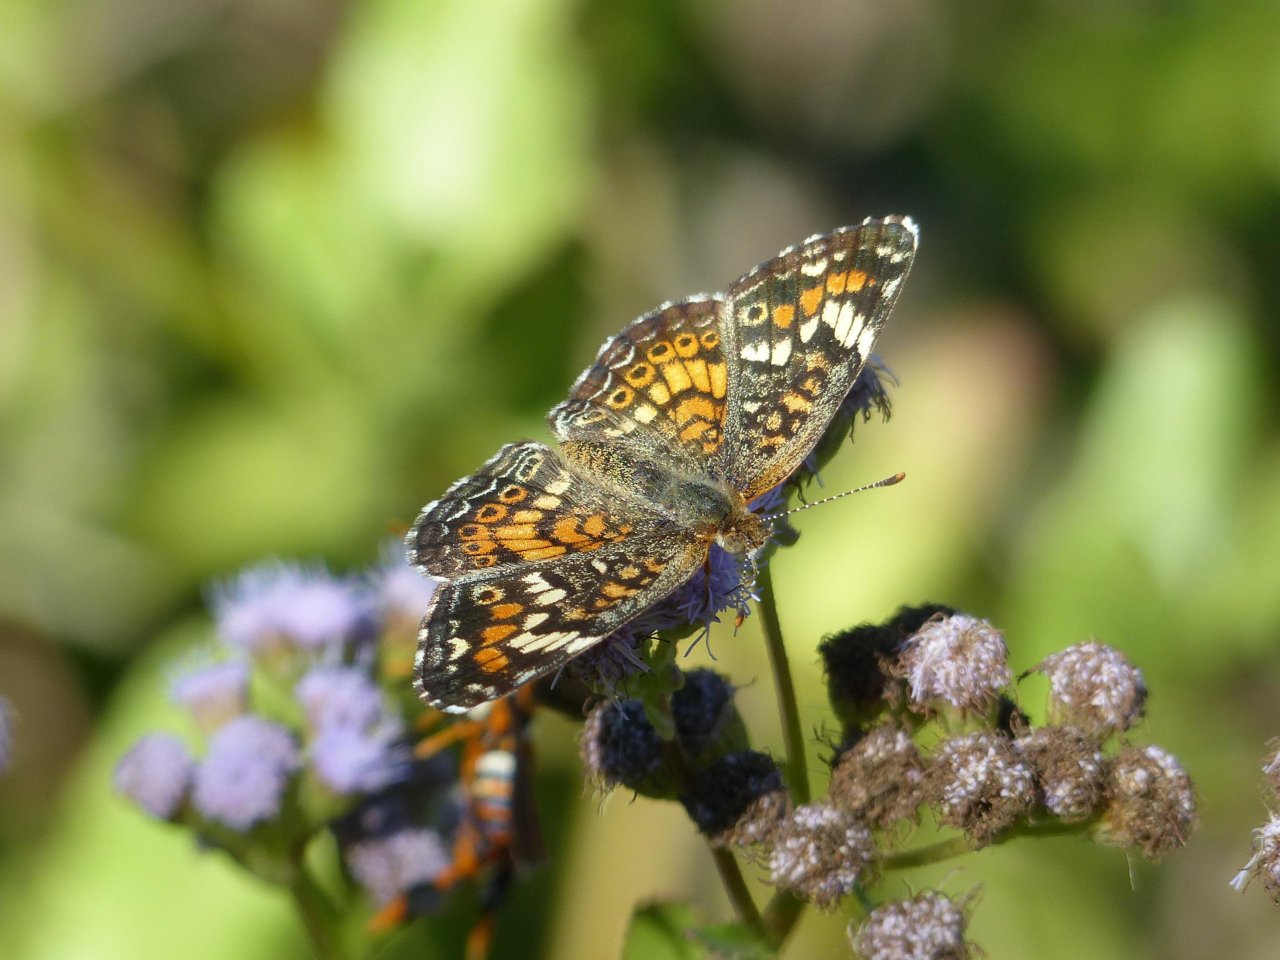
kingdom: Animalia
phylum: Arthropoda
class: Insecta
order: Lepidoptera
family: Nymphalidae
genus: Phyciodes
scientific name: Phyciodes phaon
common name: Phaon Crescent
